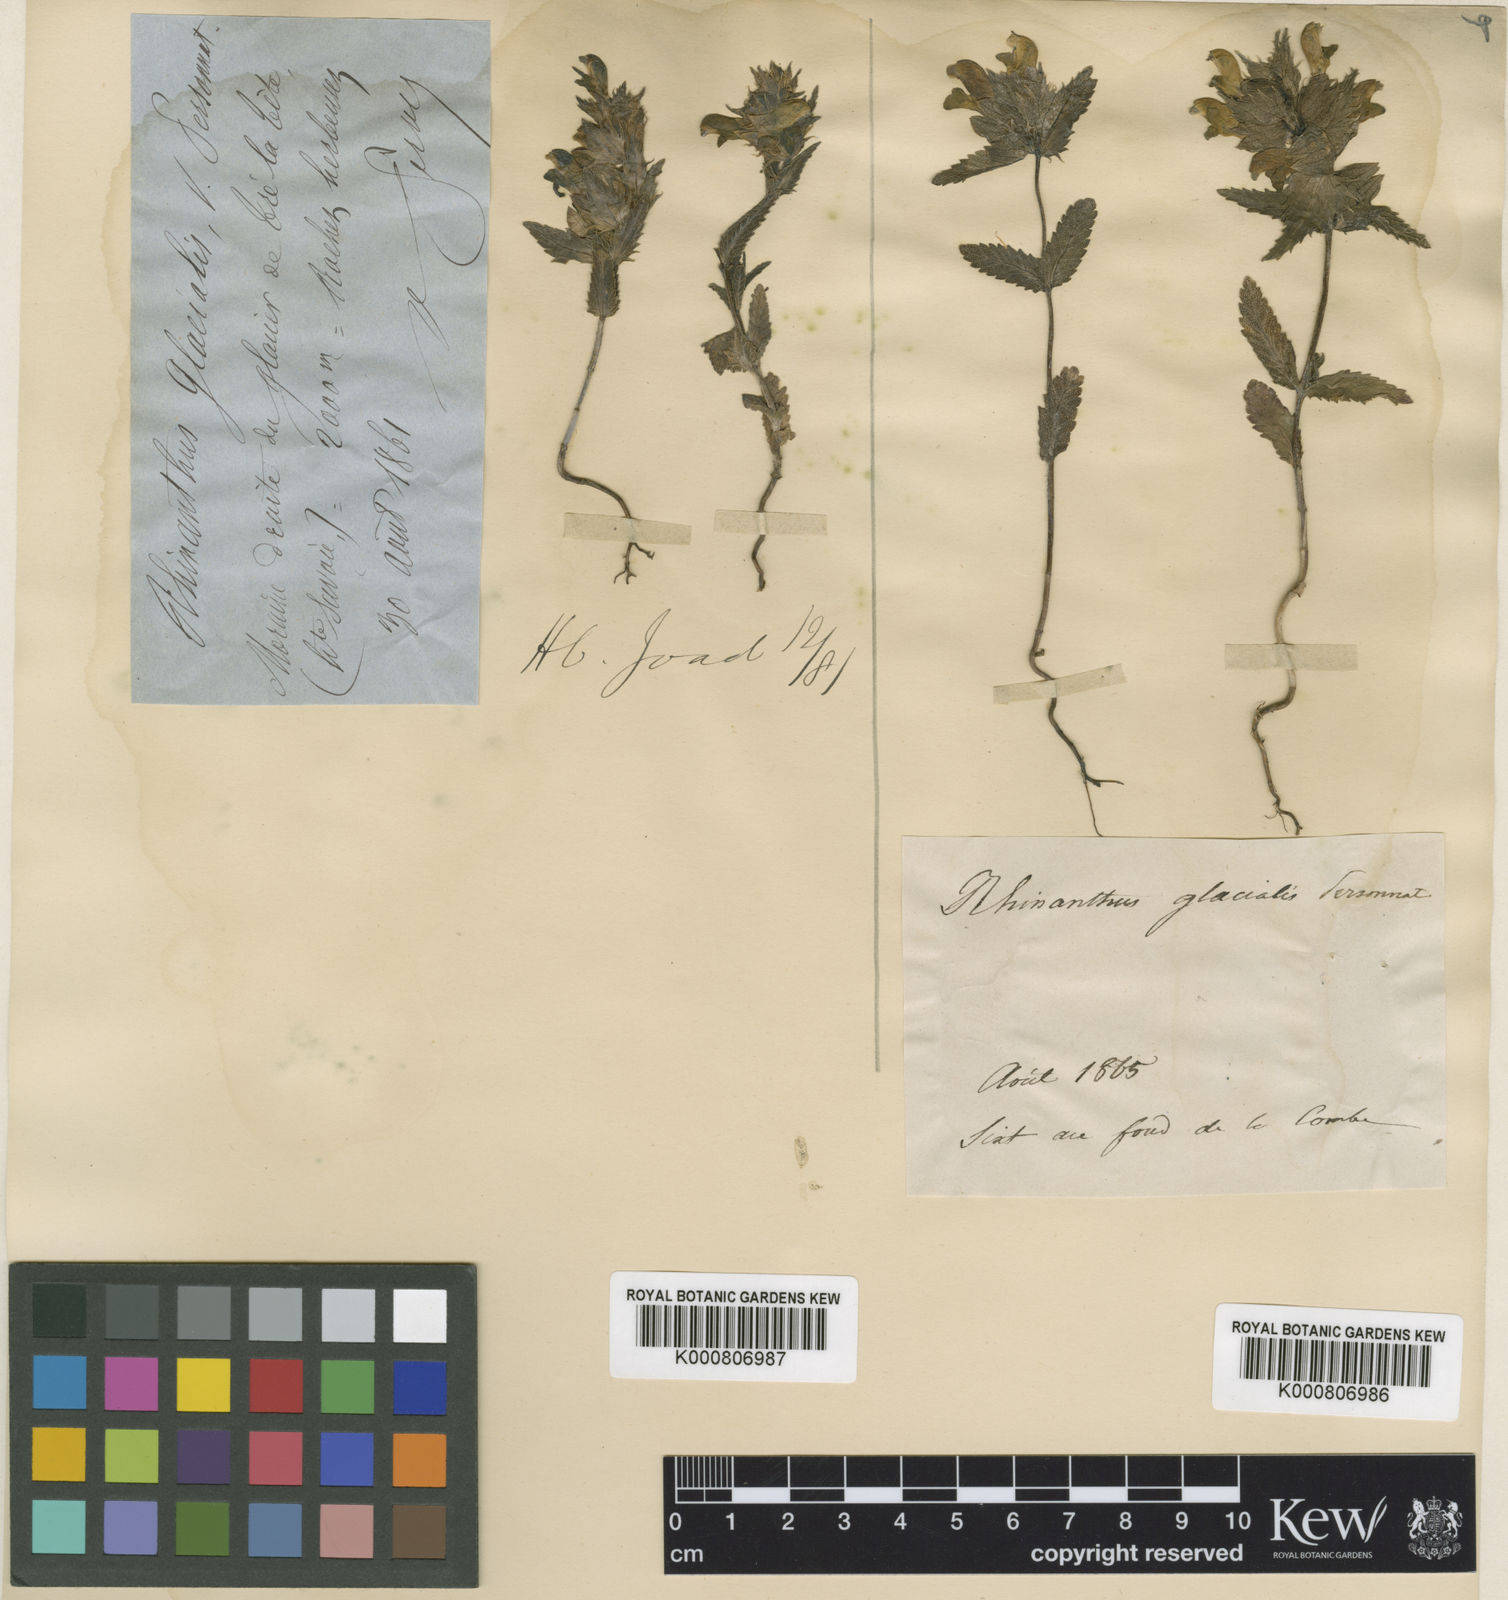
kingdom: Plantae
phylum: Tracheophyta
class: Magnoliopsida
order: Lamiales
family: Orobanchaceae
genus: Rhinanthus
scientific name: Rhinanthus glacialis
